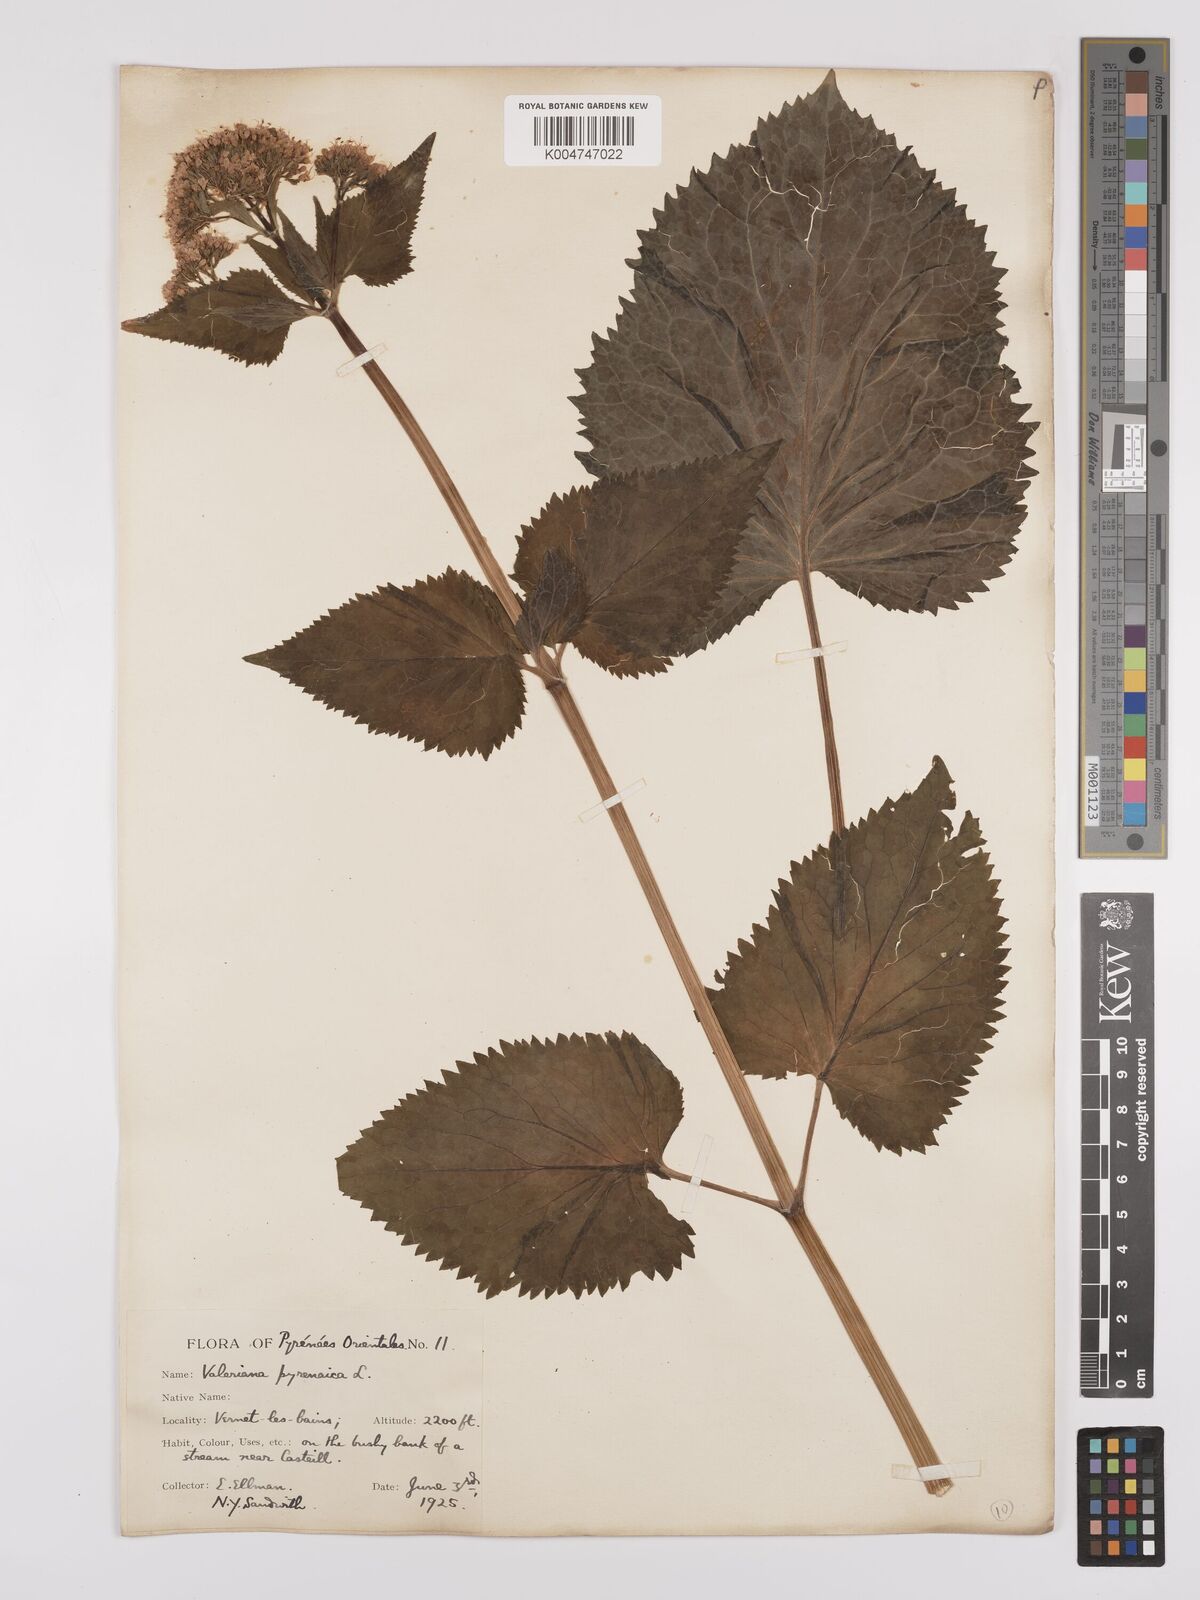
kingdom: Plantae
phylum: Tracheophyta
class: Magnoliopsida
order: Dipsacales
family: Caprifoliaceae
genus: Valeriana
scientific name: Valeriana pyrenaica
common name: Pyrenean valerian
